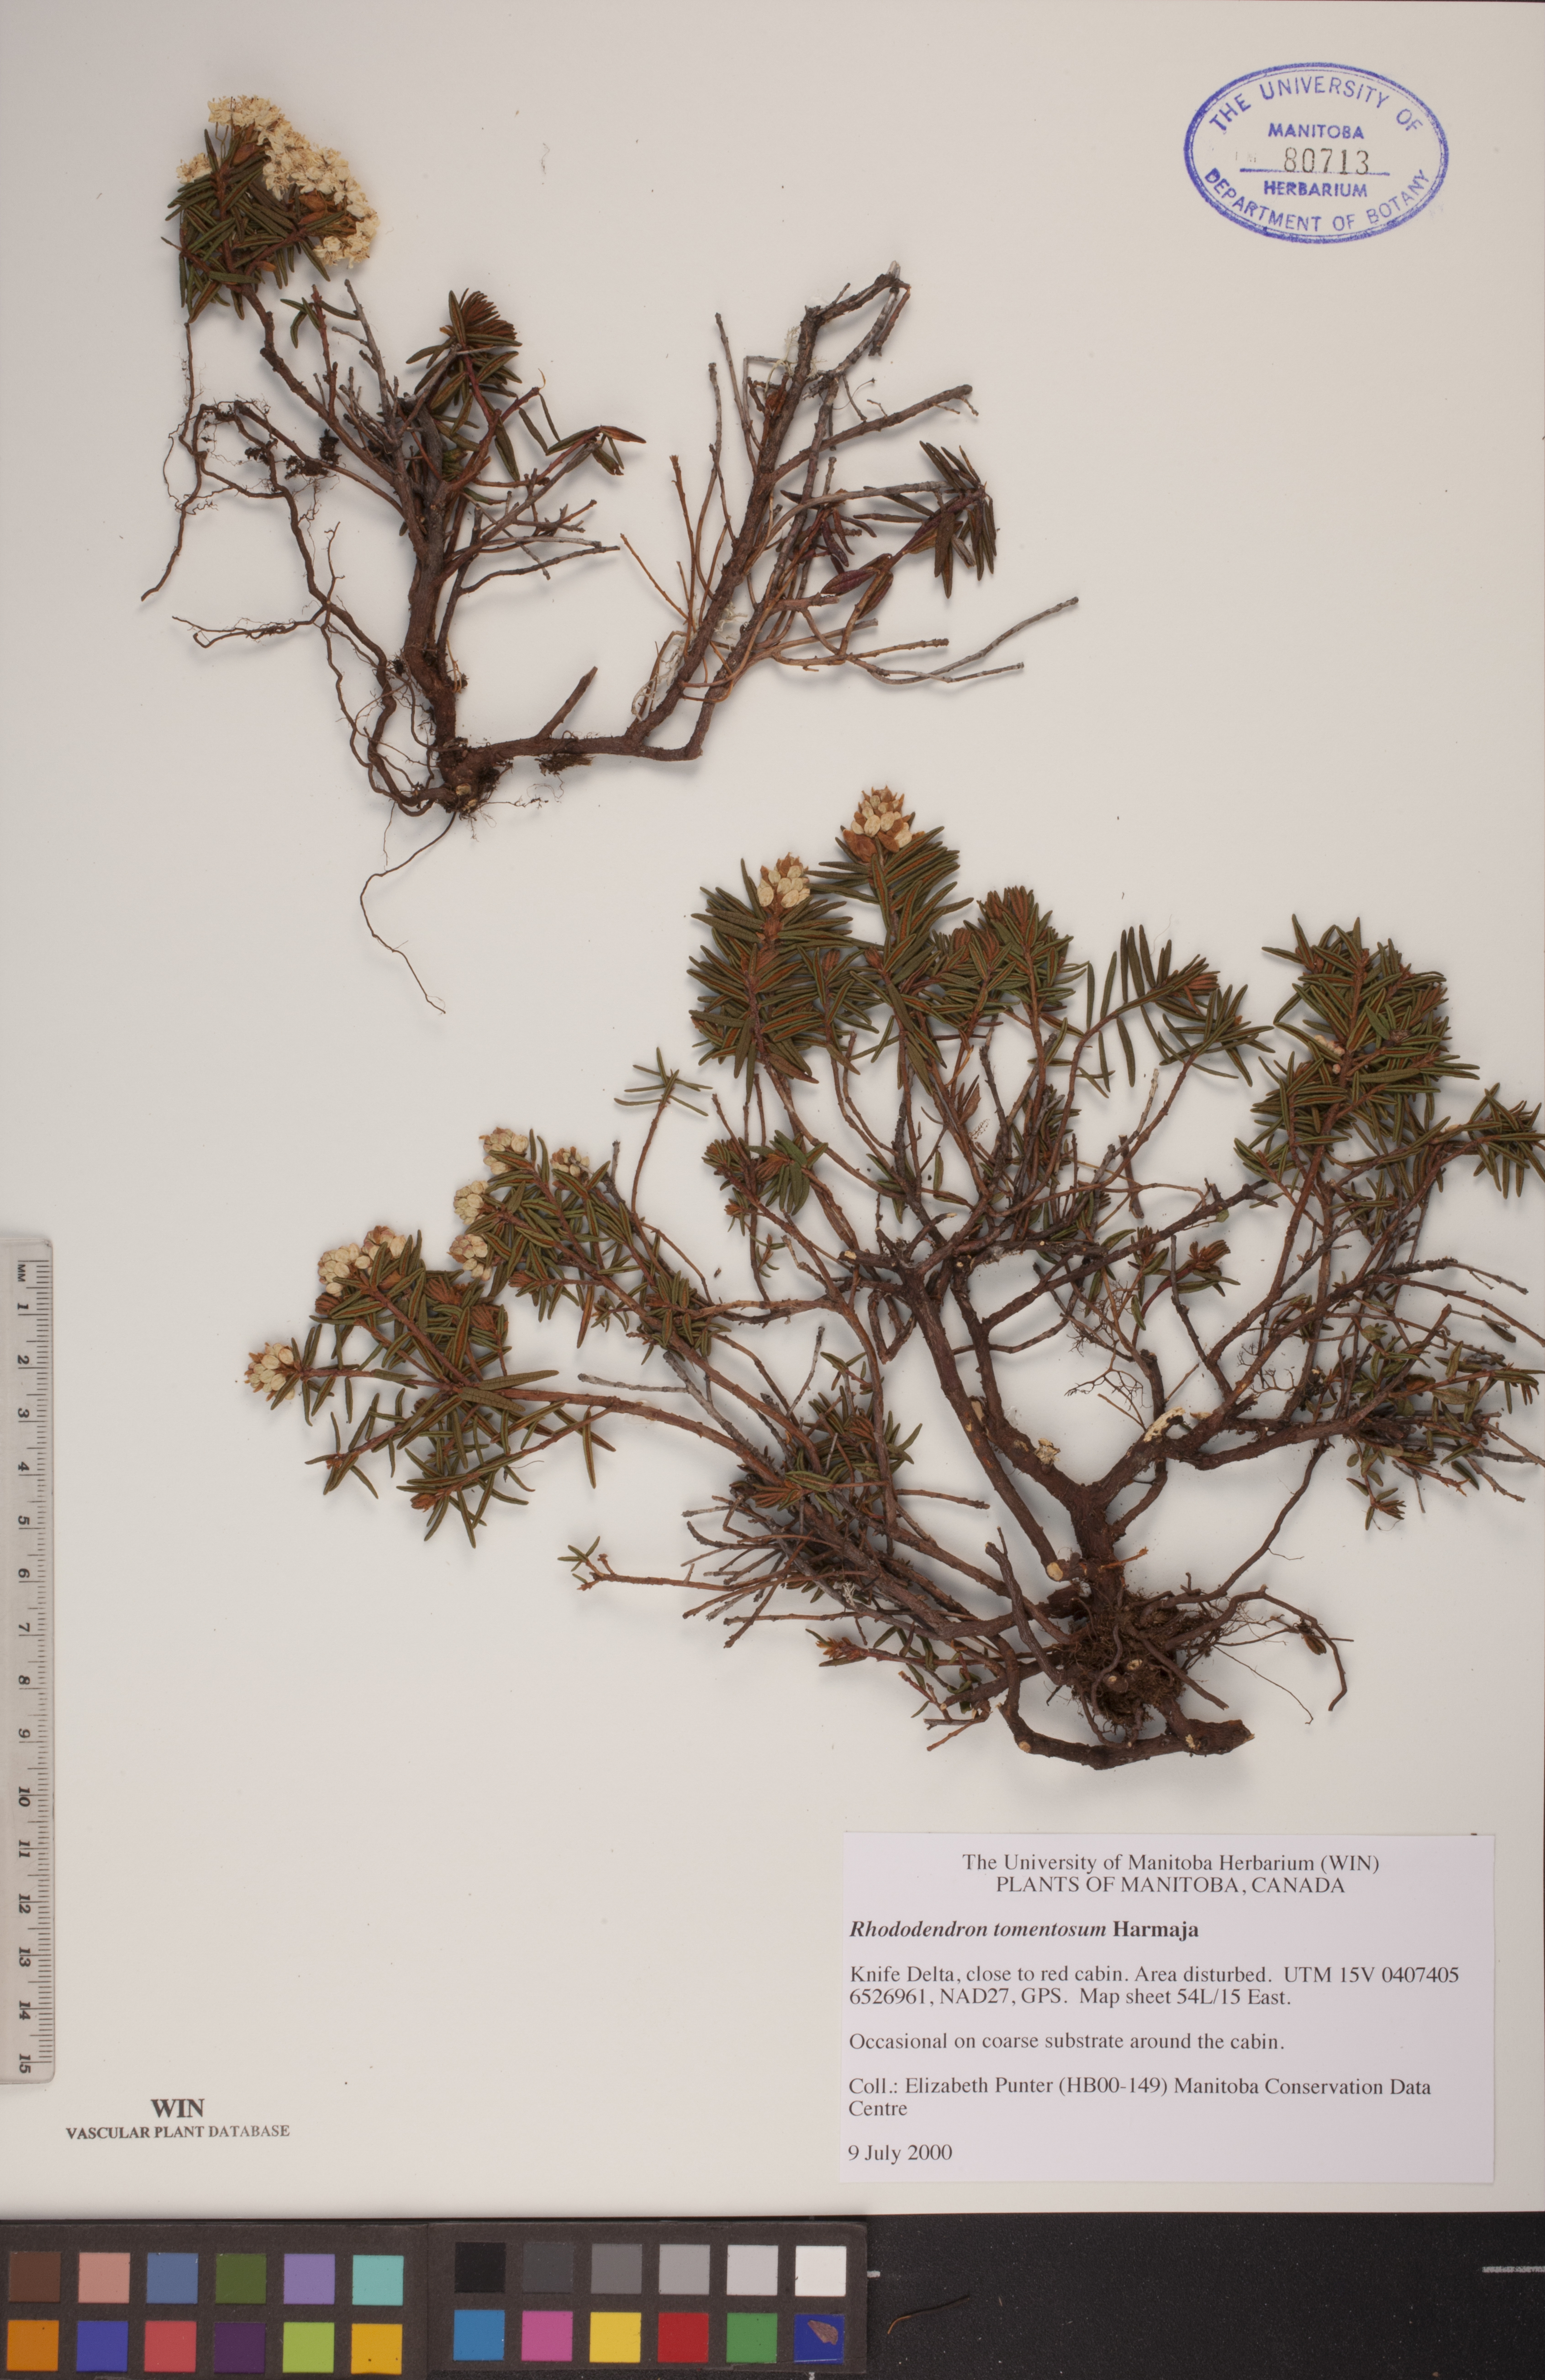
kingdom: Plantae
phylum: Tracheophyta
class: Magnoliopsida
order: Ericales
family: Ericaceae
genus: Rhododendron
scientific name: Rhododendron tomentosum
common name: Marsh labrador tea
